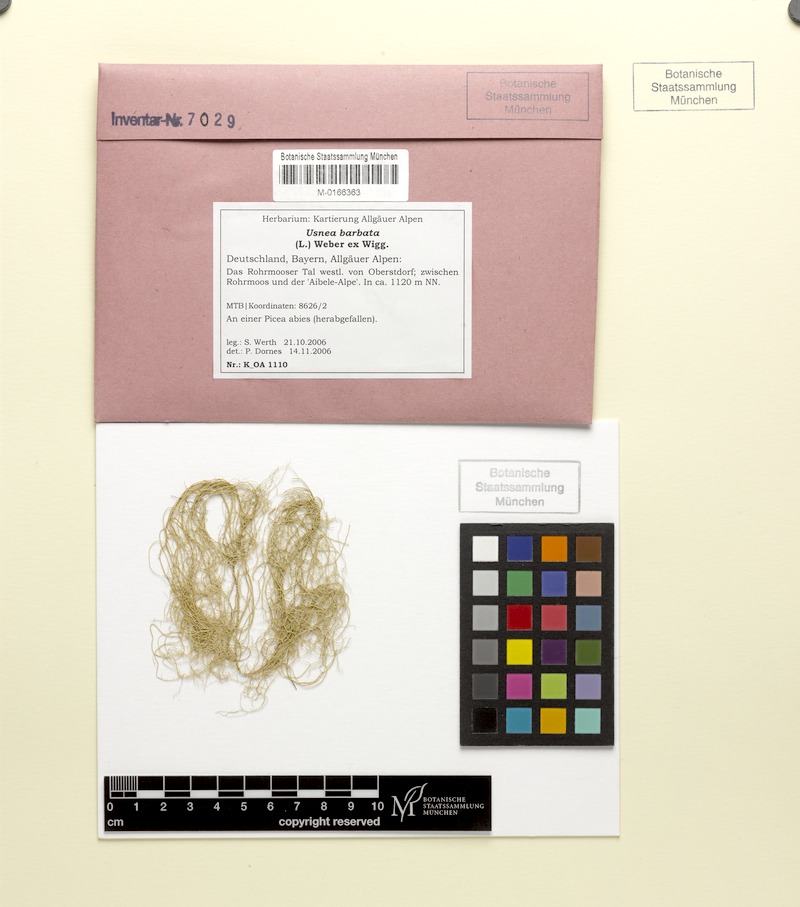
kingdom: Fungi
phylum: Ascomycota
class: Lecanoromycetes
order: Lecanorales
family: Parmeliaceae
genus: Usnea
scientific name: Usnea barbata
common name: Old man's beard lichen
